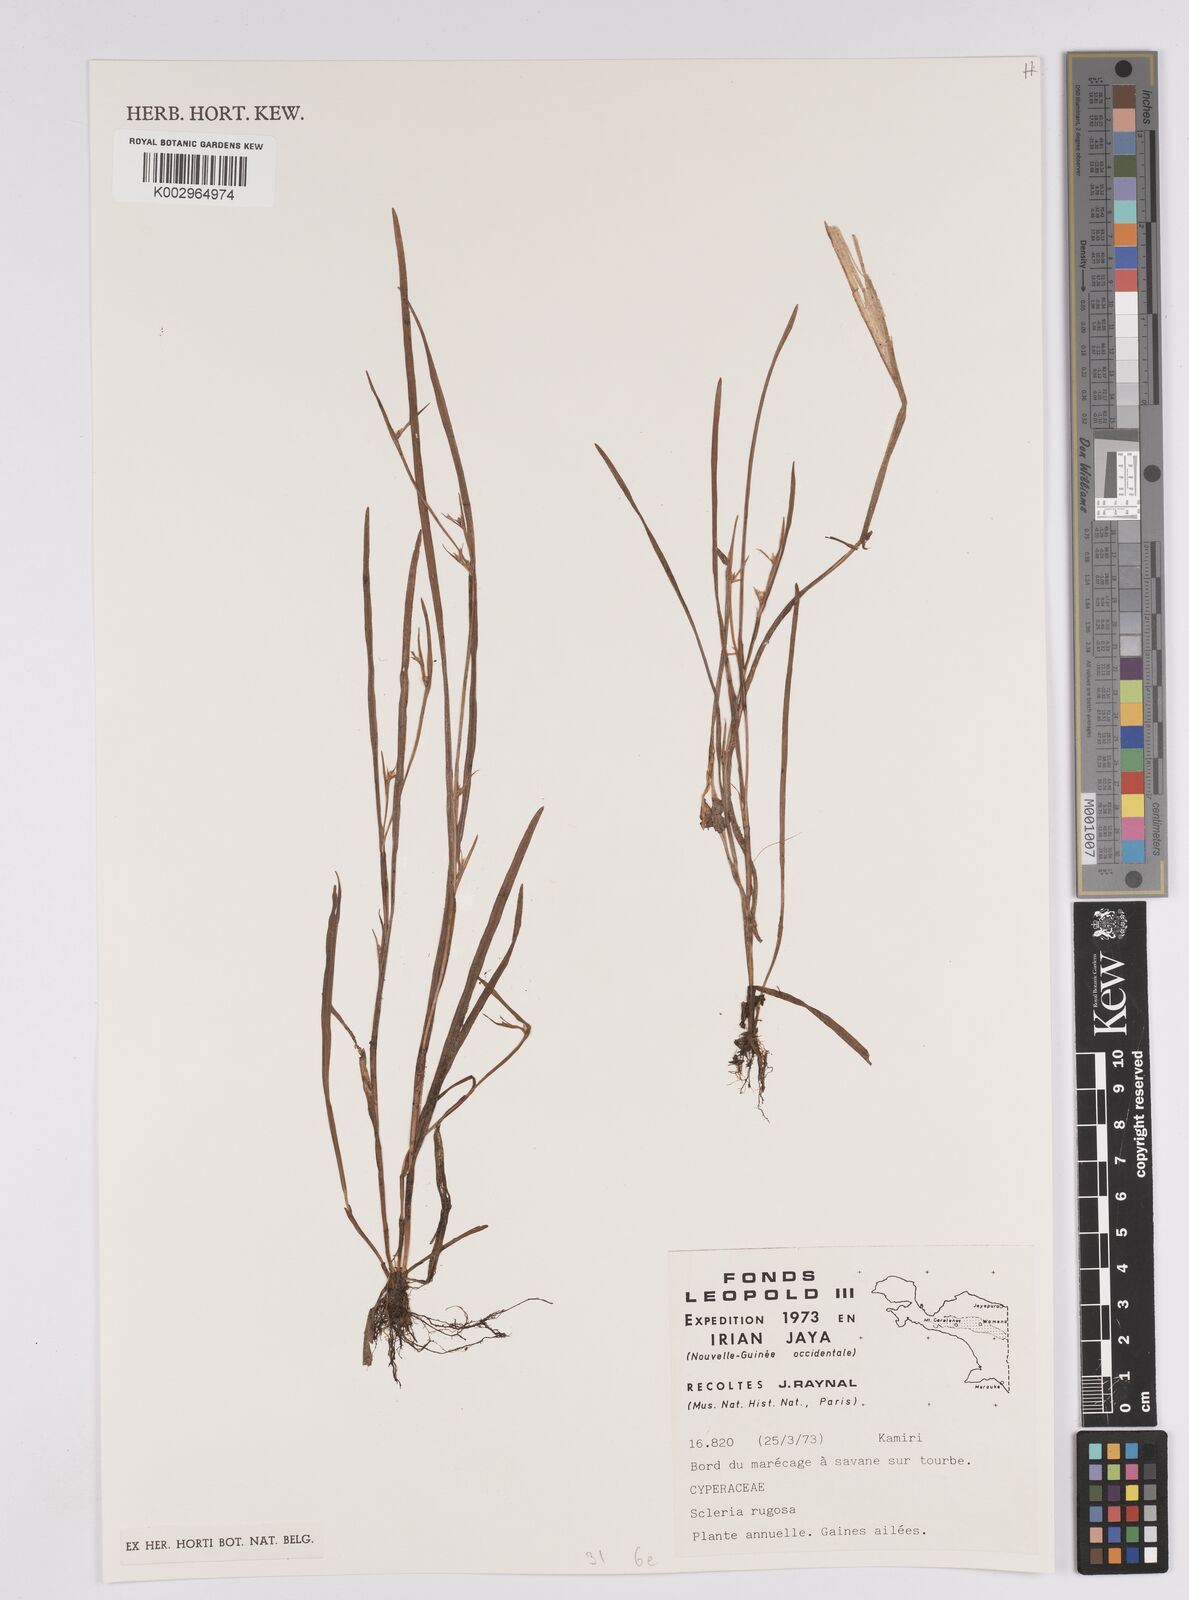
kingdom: Plantae
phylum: Tracheophyta
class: Liliopsida
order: Poales
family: Cyperaceae
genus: Scleria
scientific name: Scleria rugosa
